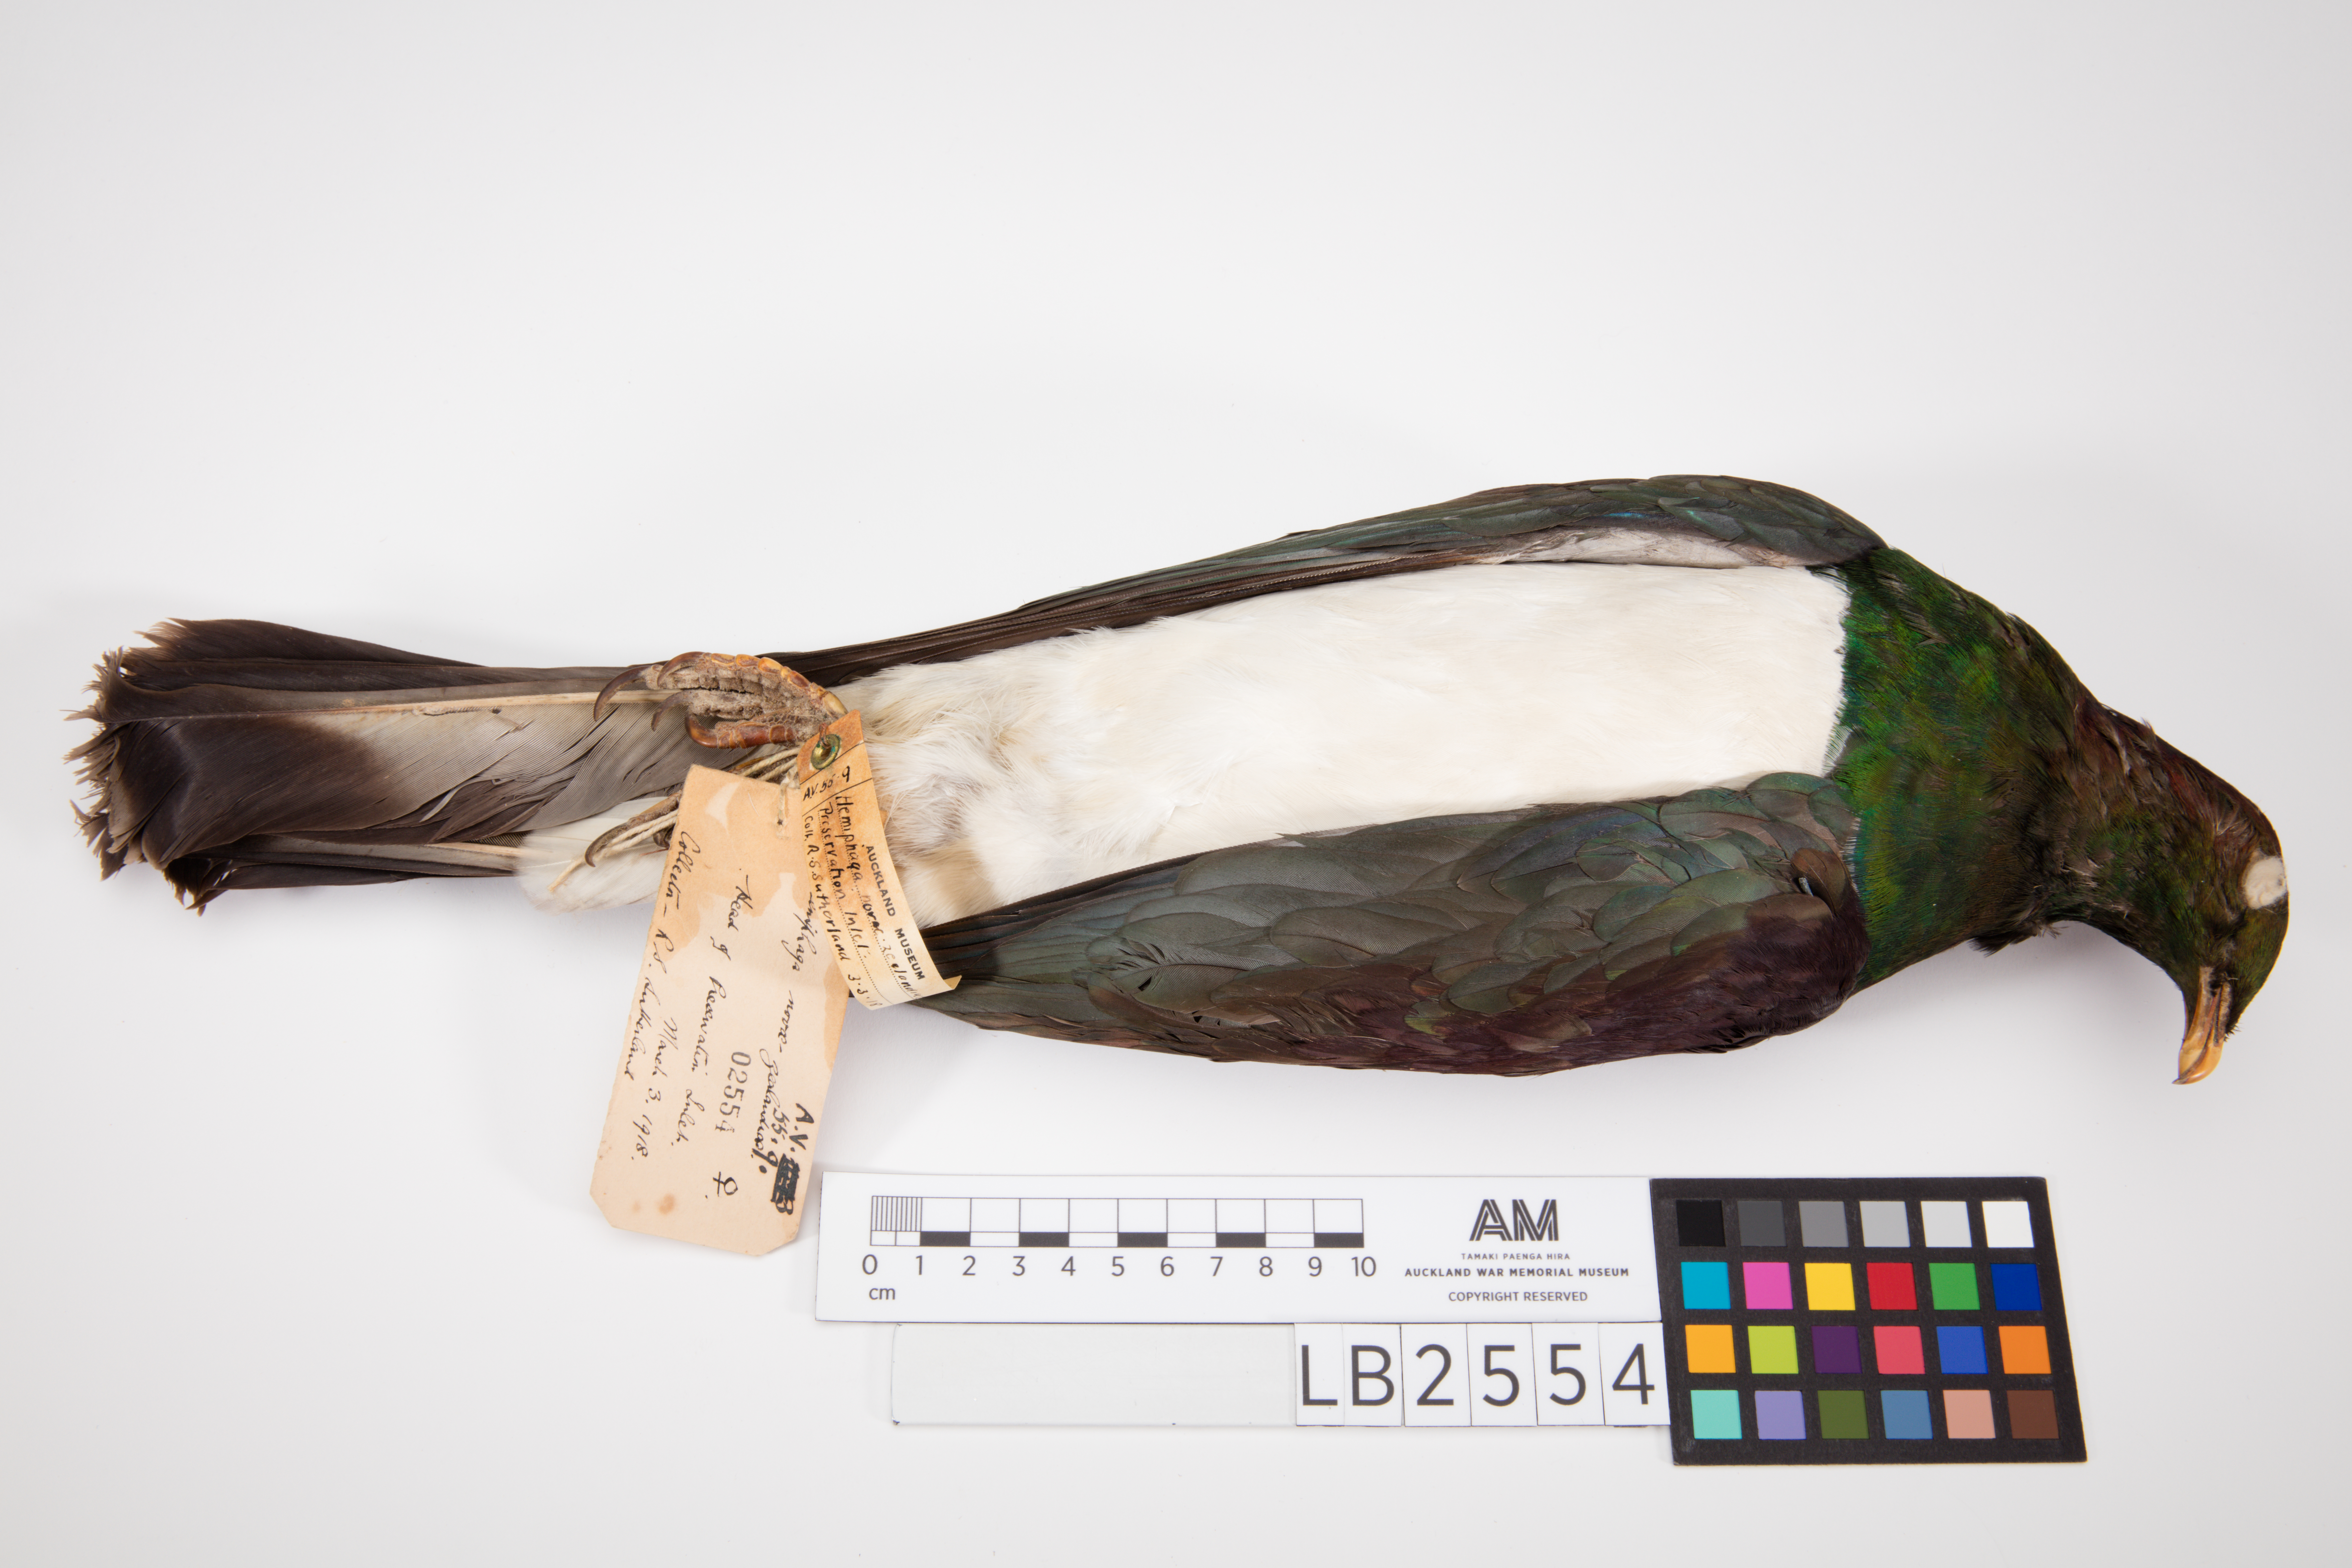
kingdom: Animalia
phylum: Chordata
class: Aves
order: Columbiformes
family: Columbidae
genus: Hemiphaga
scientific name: Hemiphaga novaeseelandiae
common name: New zealand pigeon
